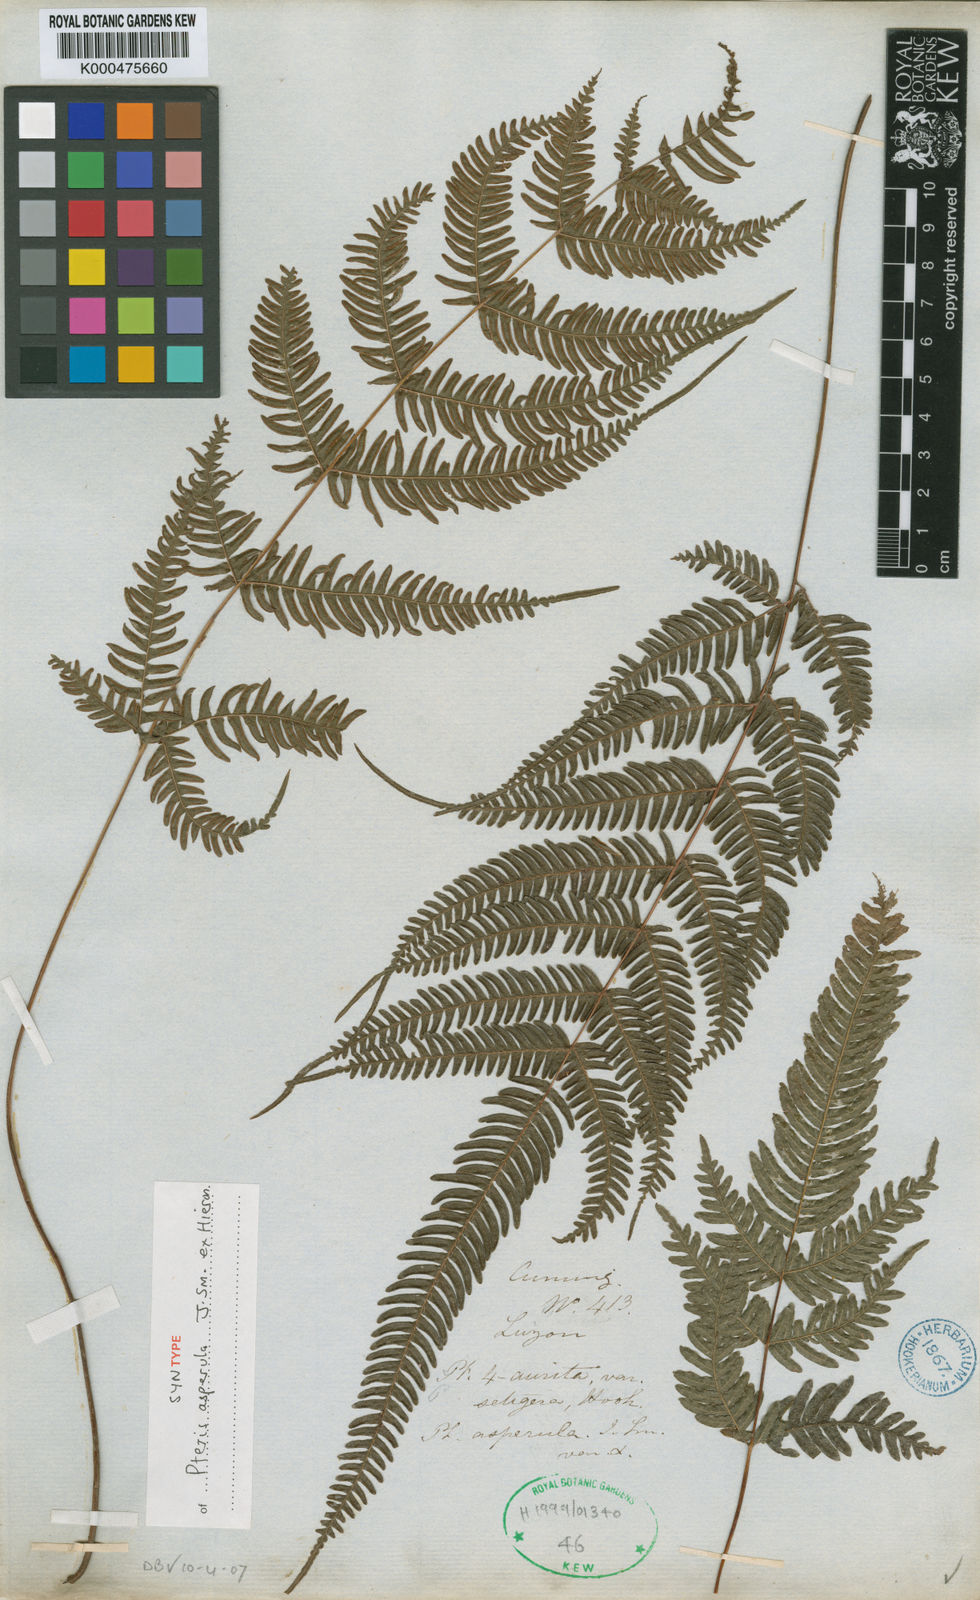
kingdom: Plantae
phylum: Tracheophyta
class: Polypodiopsida
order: Polypodiales
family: Pteridaceae
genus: Pteris
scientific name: Pteris oppositipinnata
